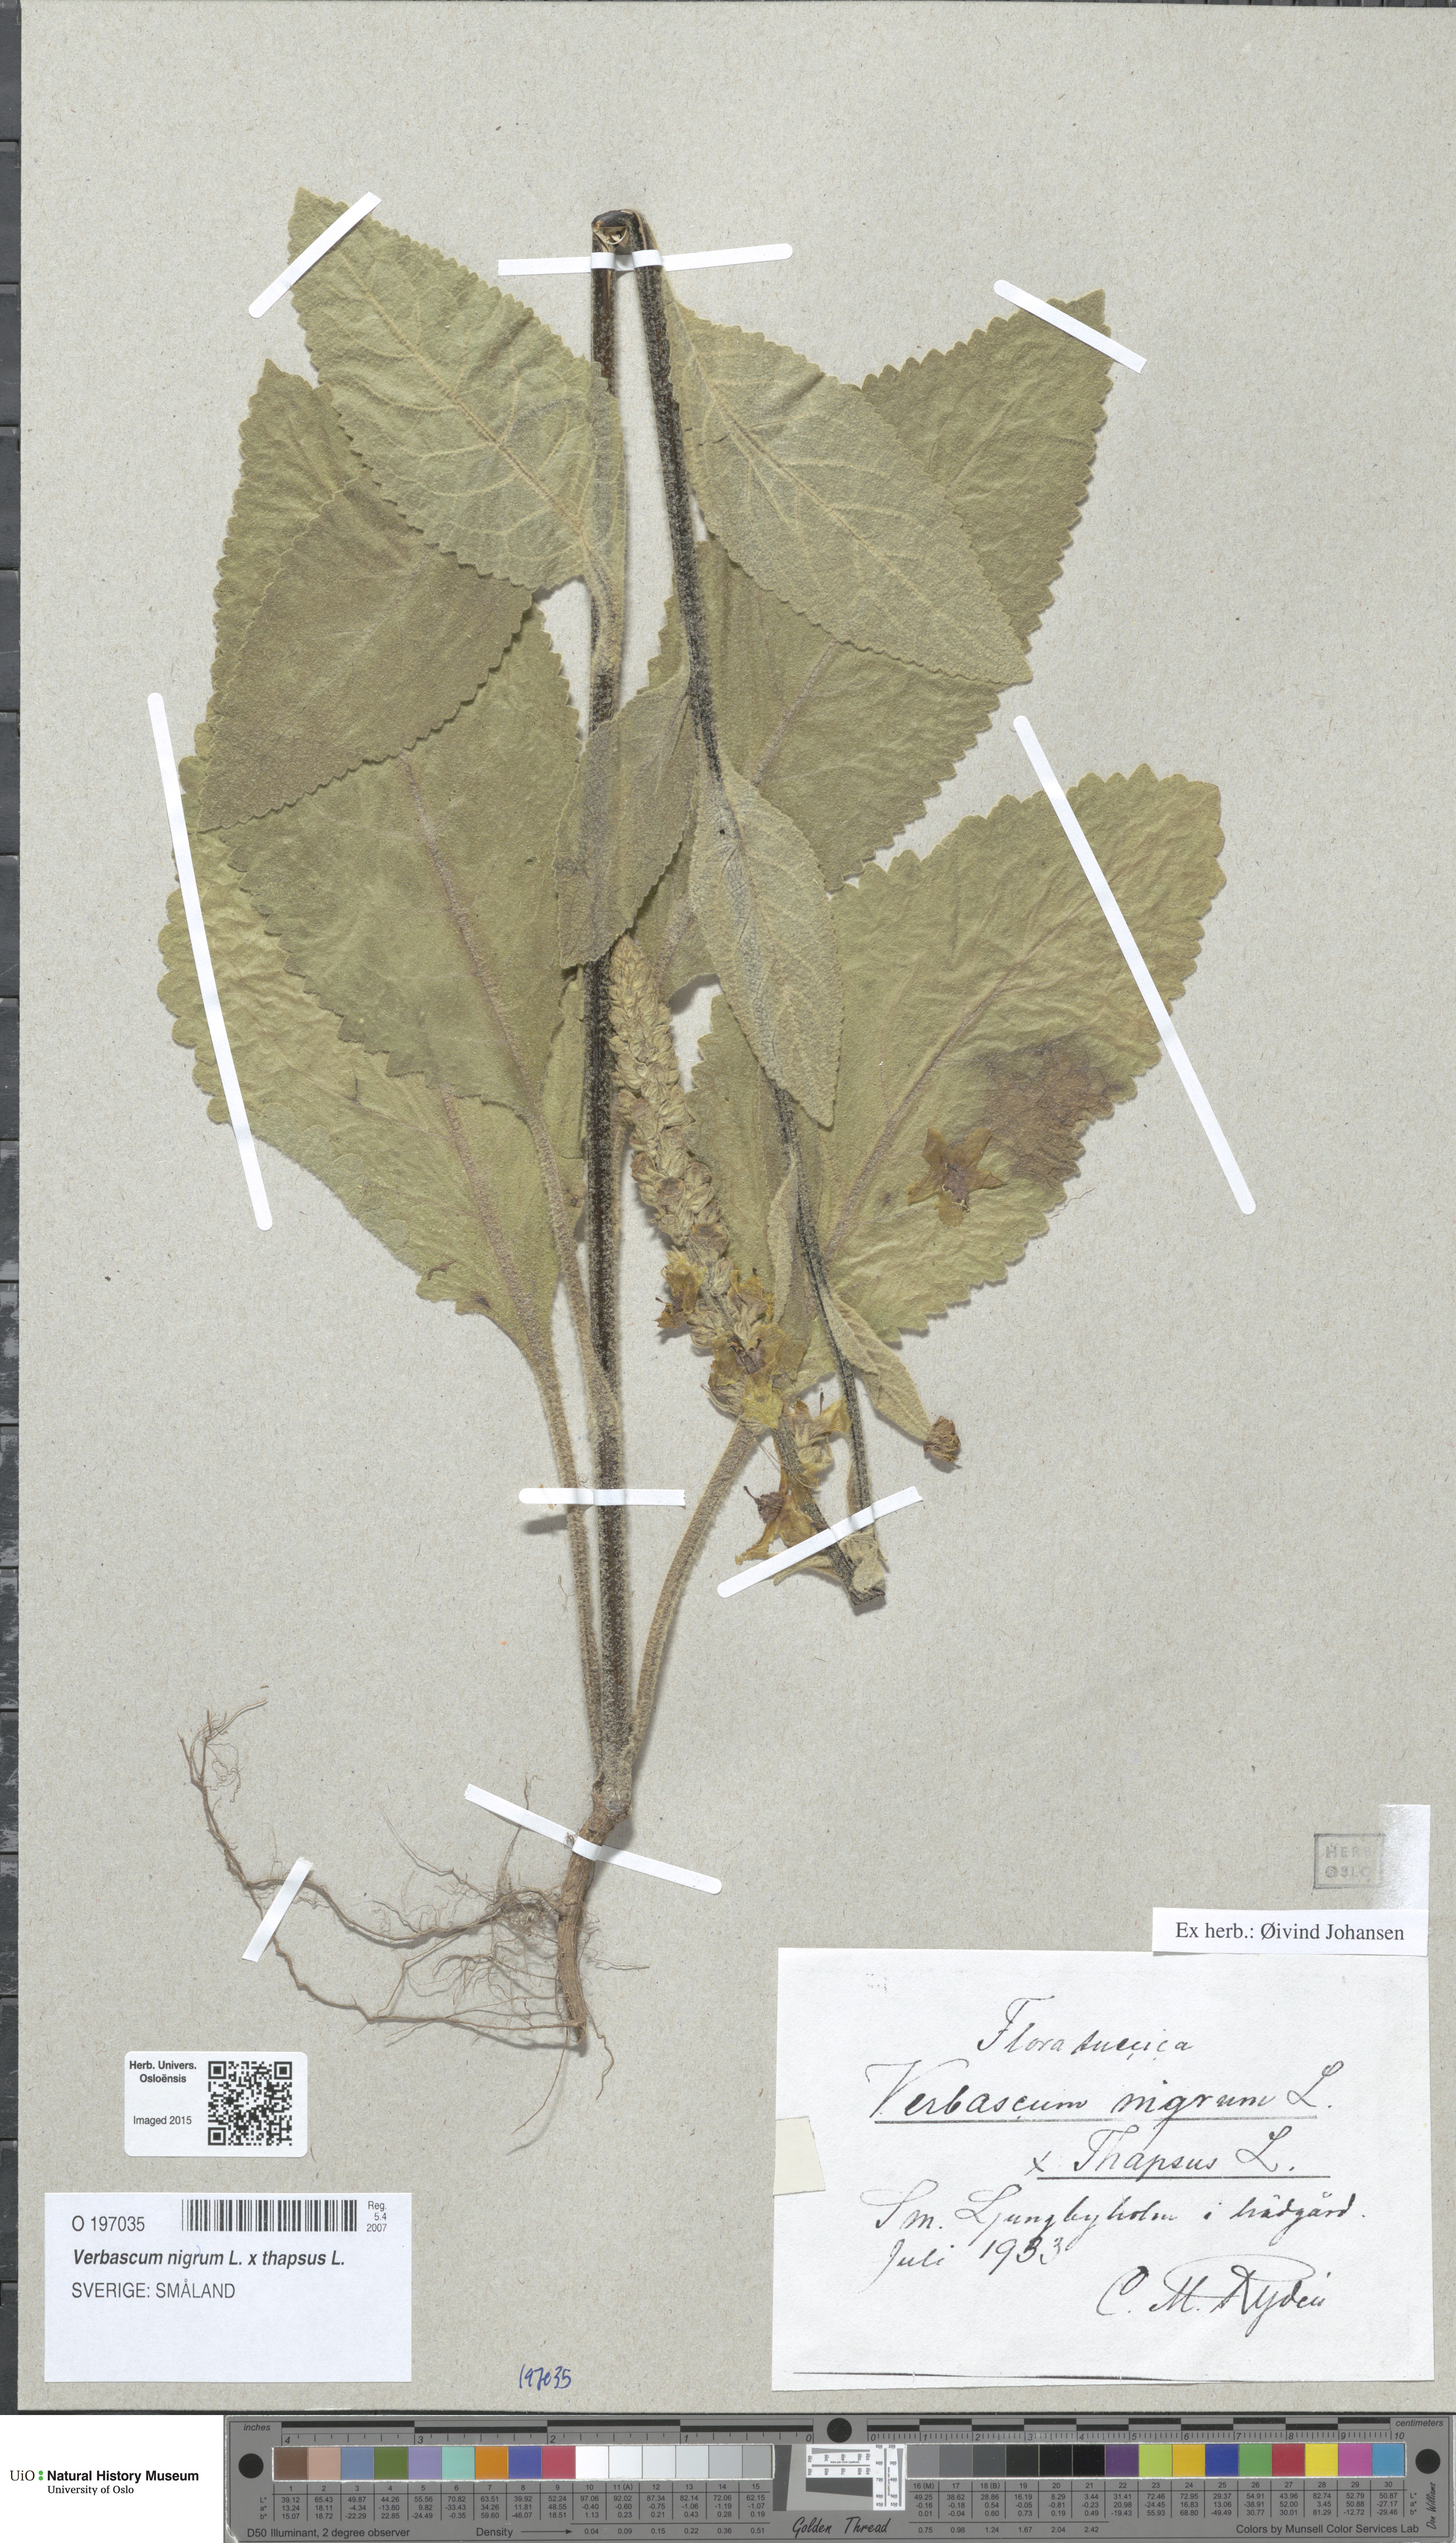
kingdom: Plantae
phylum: Tracheophyta
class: Magnoliopsida
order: Lamiales
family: Scrophulariaceae
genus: Verbascum
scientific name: Verbascum
